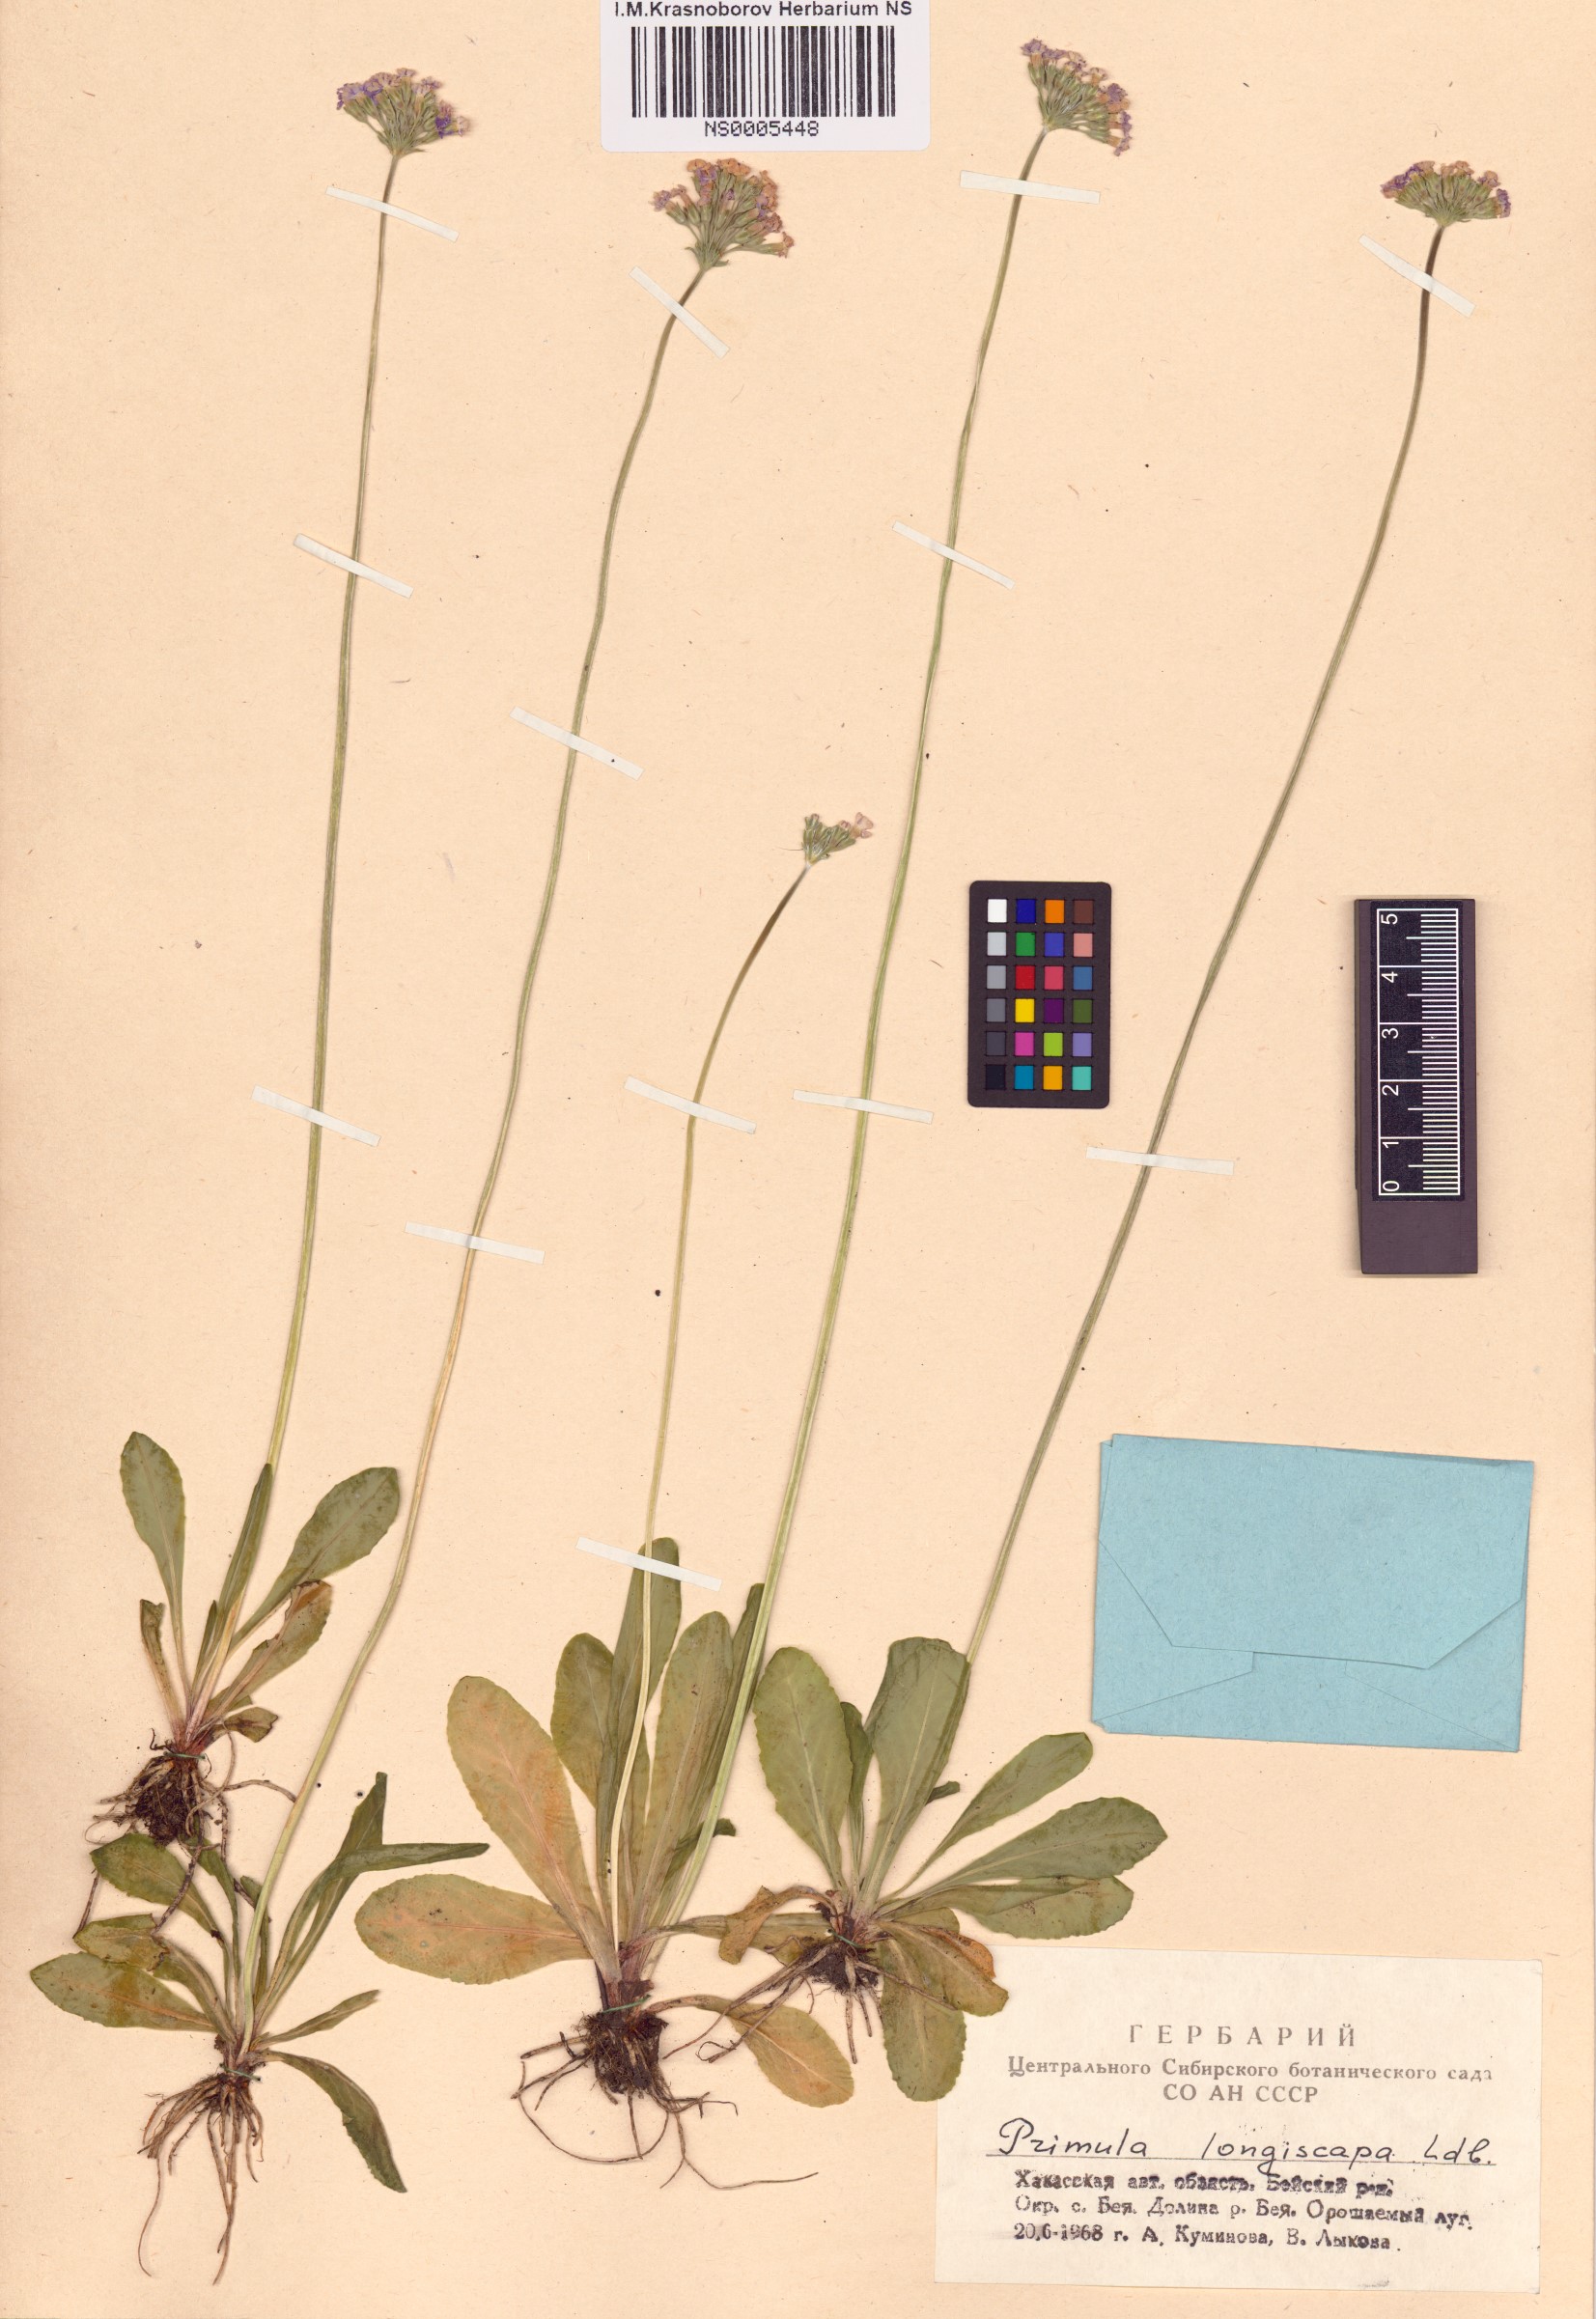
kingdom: Plantae
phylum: Tracheophyta
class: Magnoliopsida
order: Ericales
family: Primulaceae
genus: Primula
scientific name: Primula longiscapa
